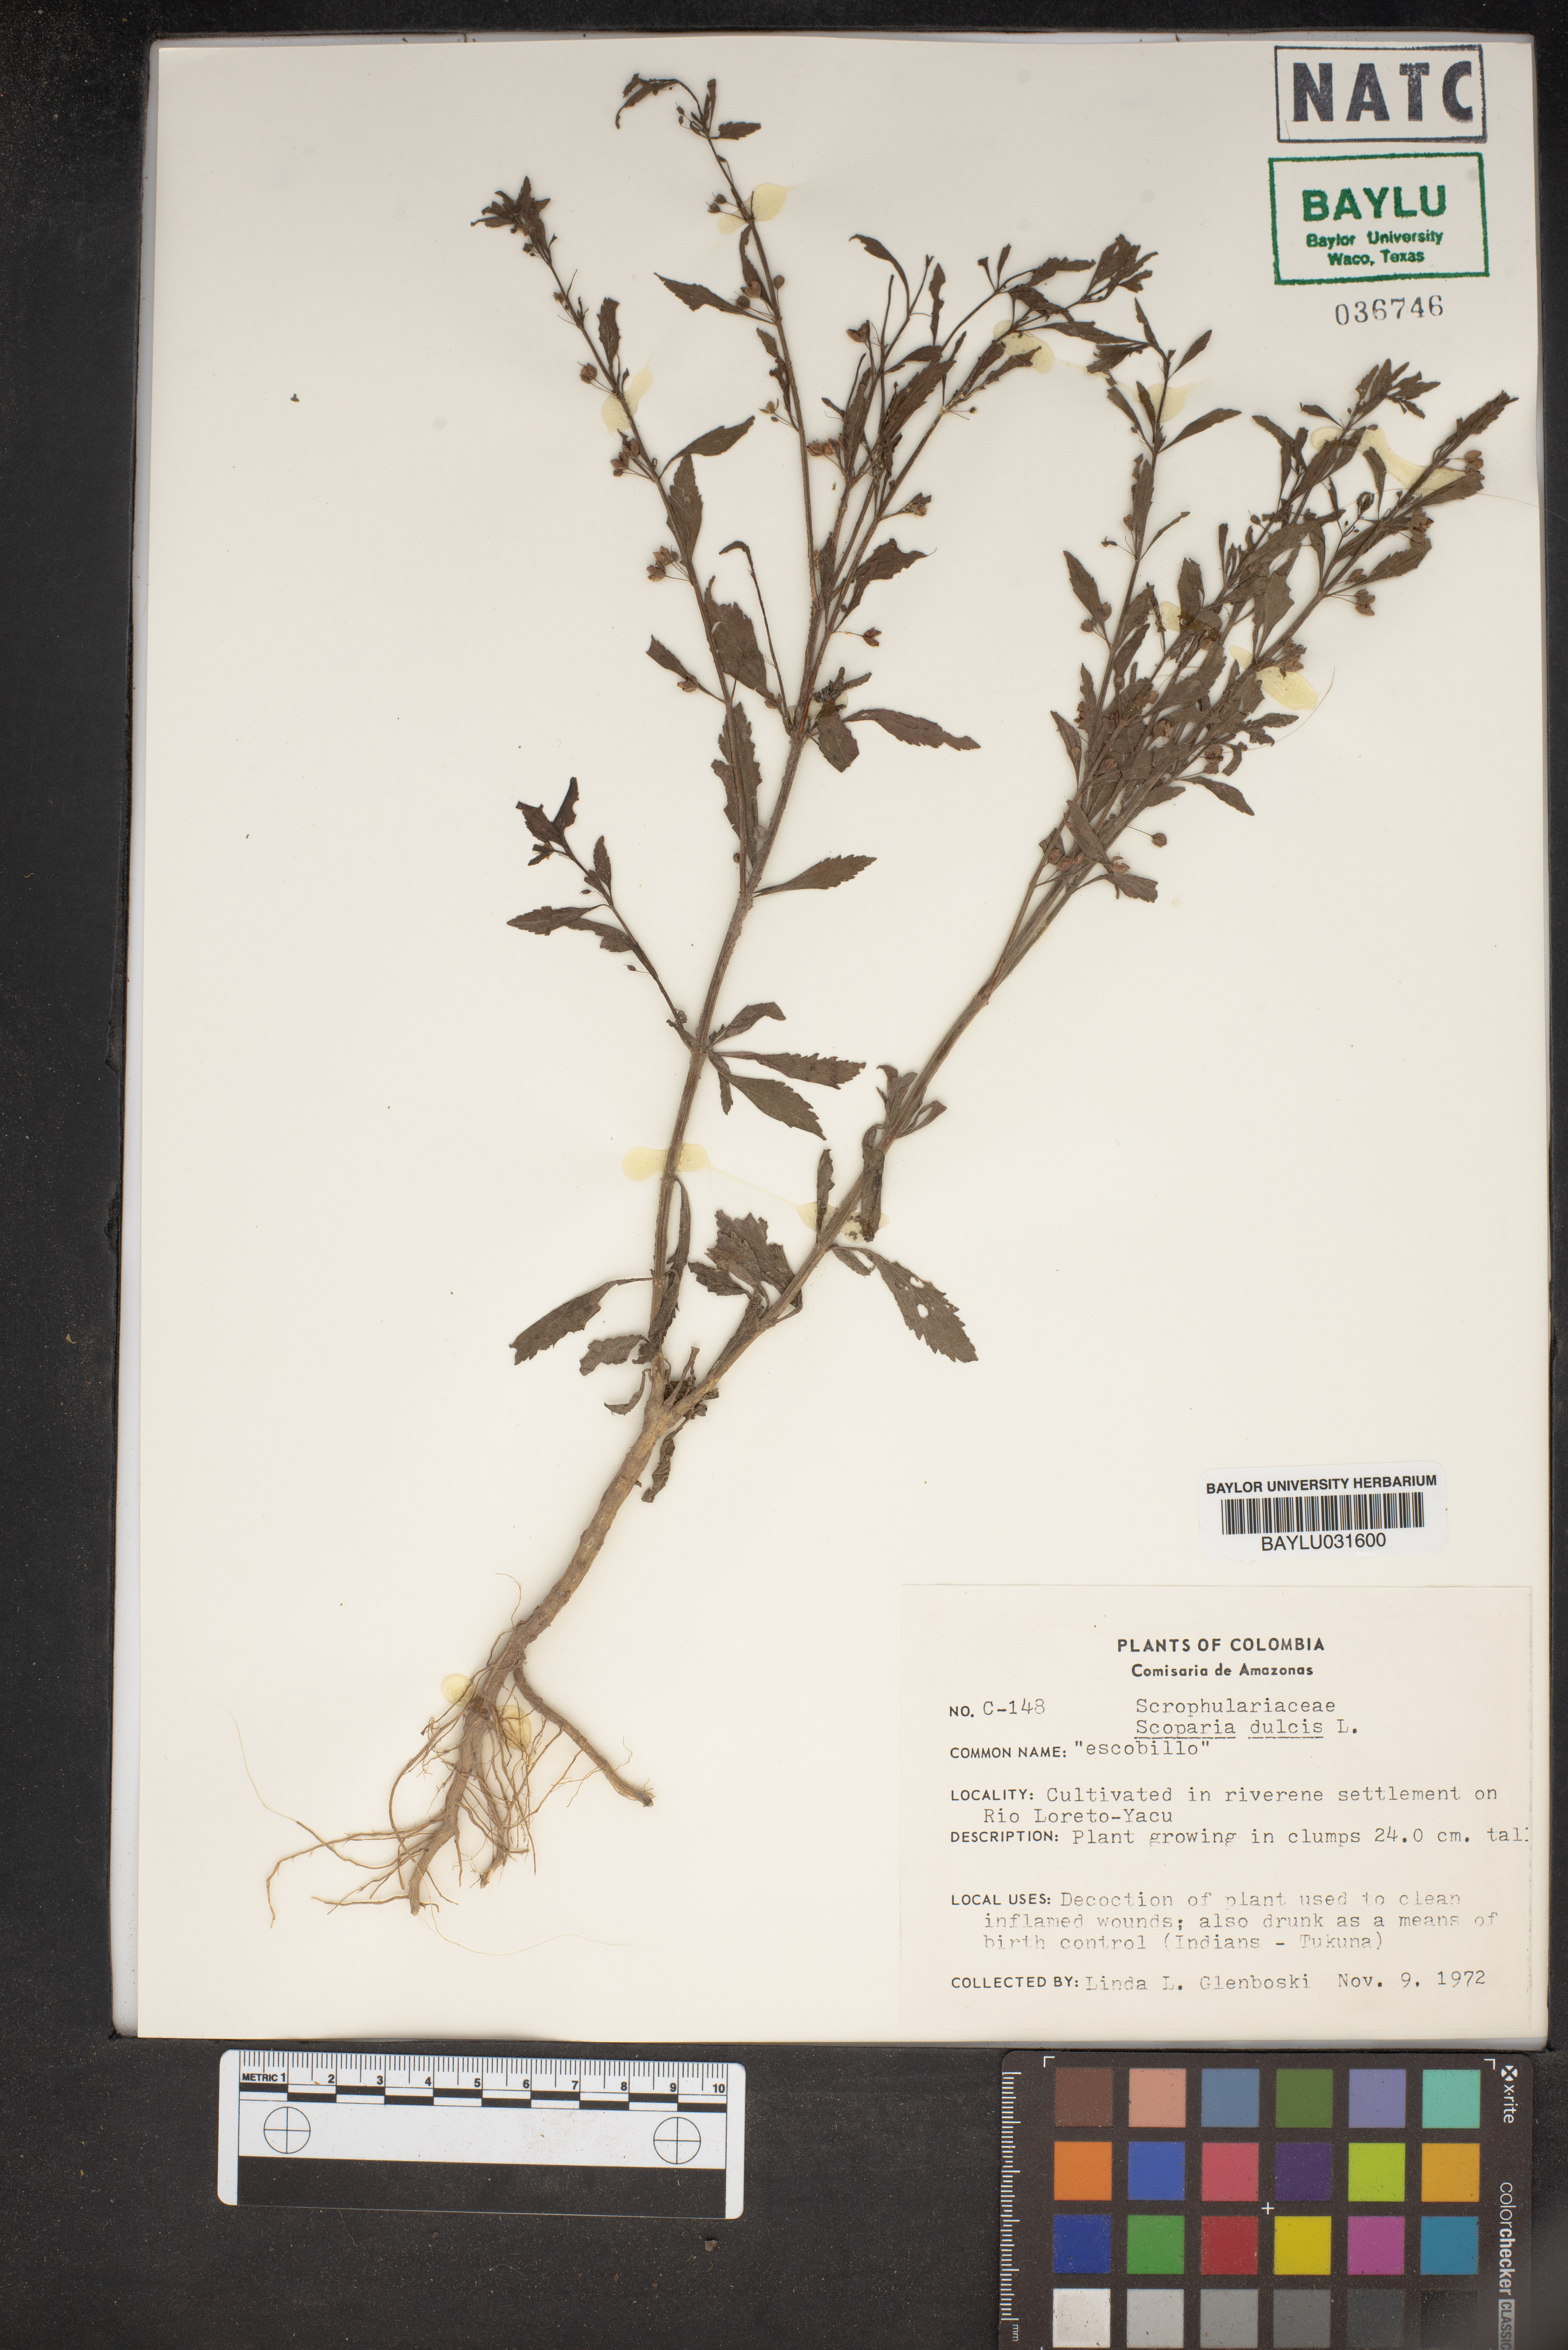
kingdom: Plantae
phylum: Tracheophyta
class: Magnoliopsida
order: Lamiales
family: Plantaginaceae
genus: Scoparia
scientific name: Scoparia dulcis
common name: Scoparia-weed
